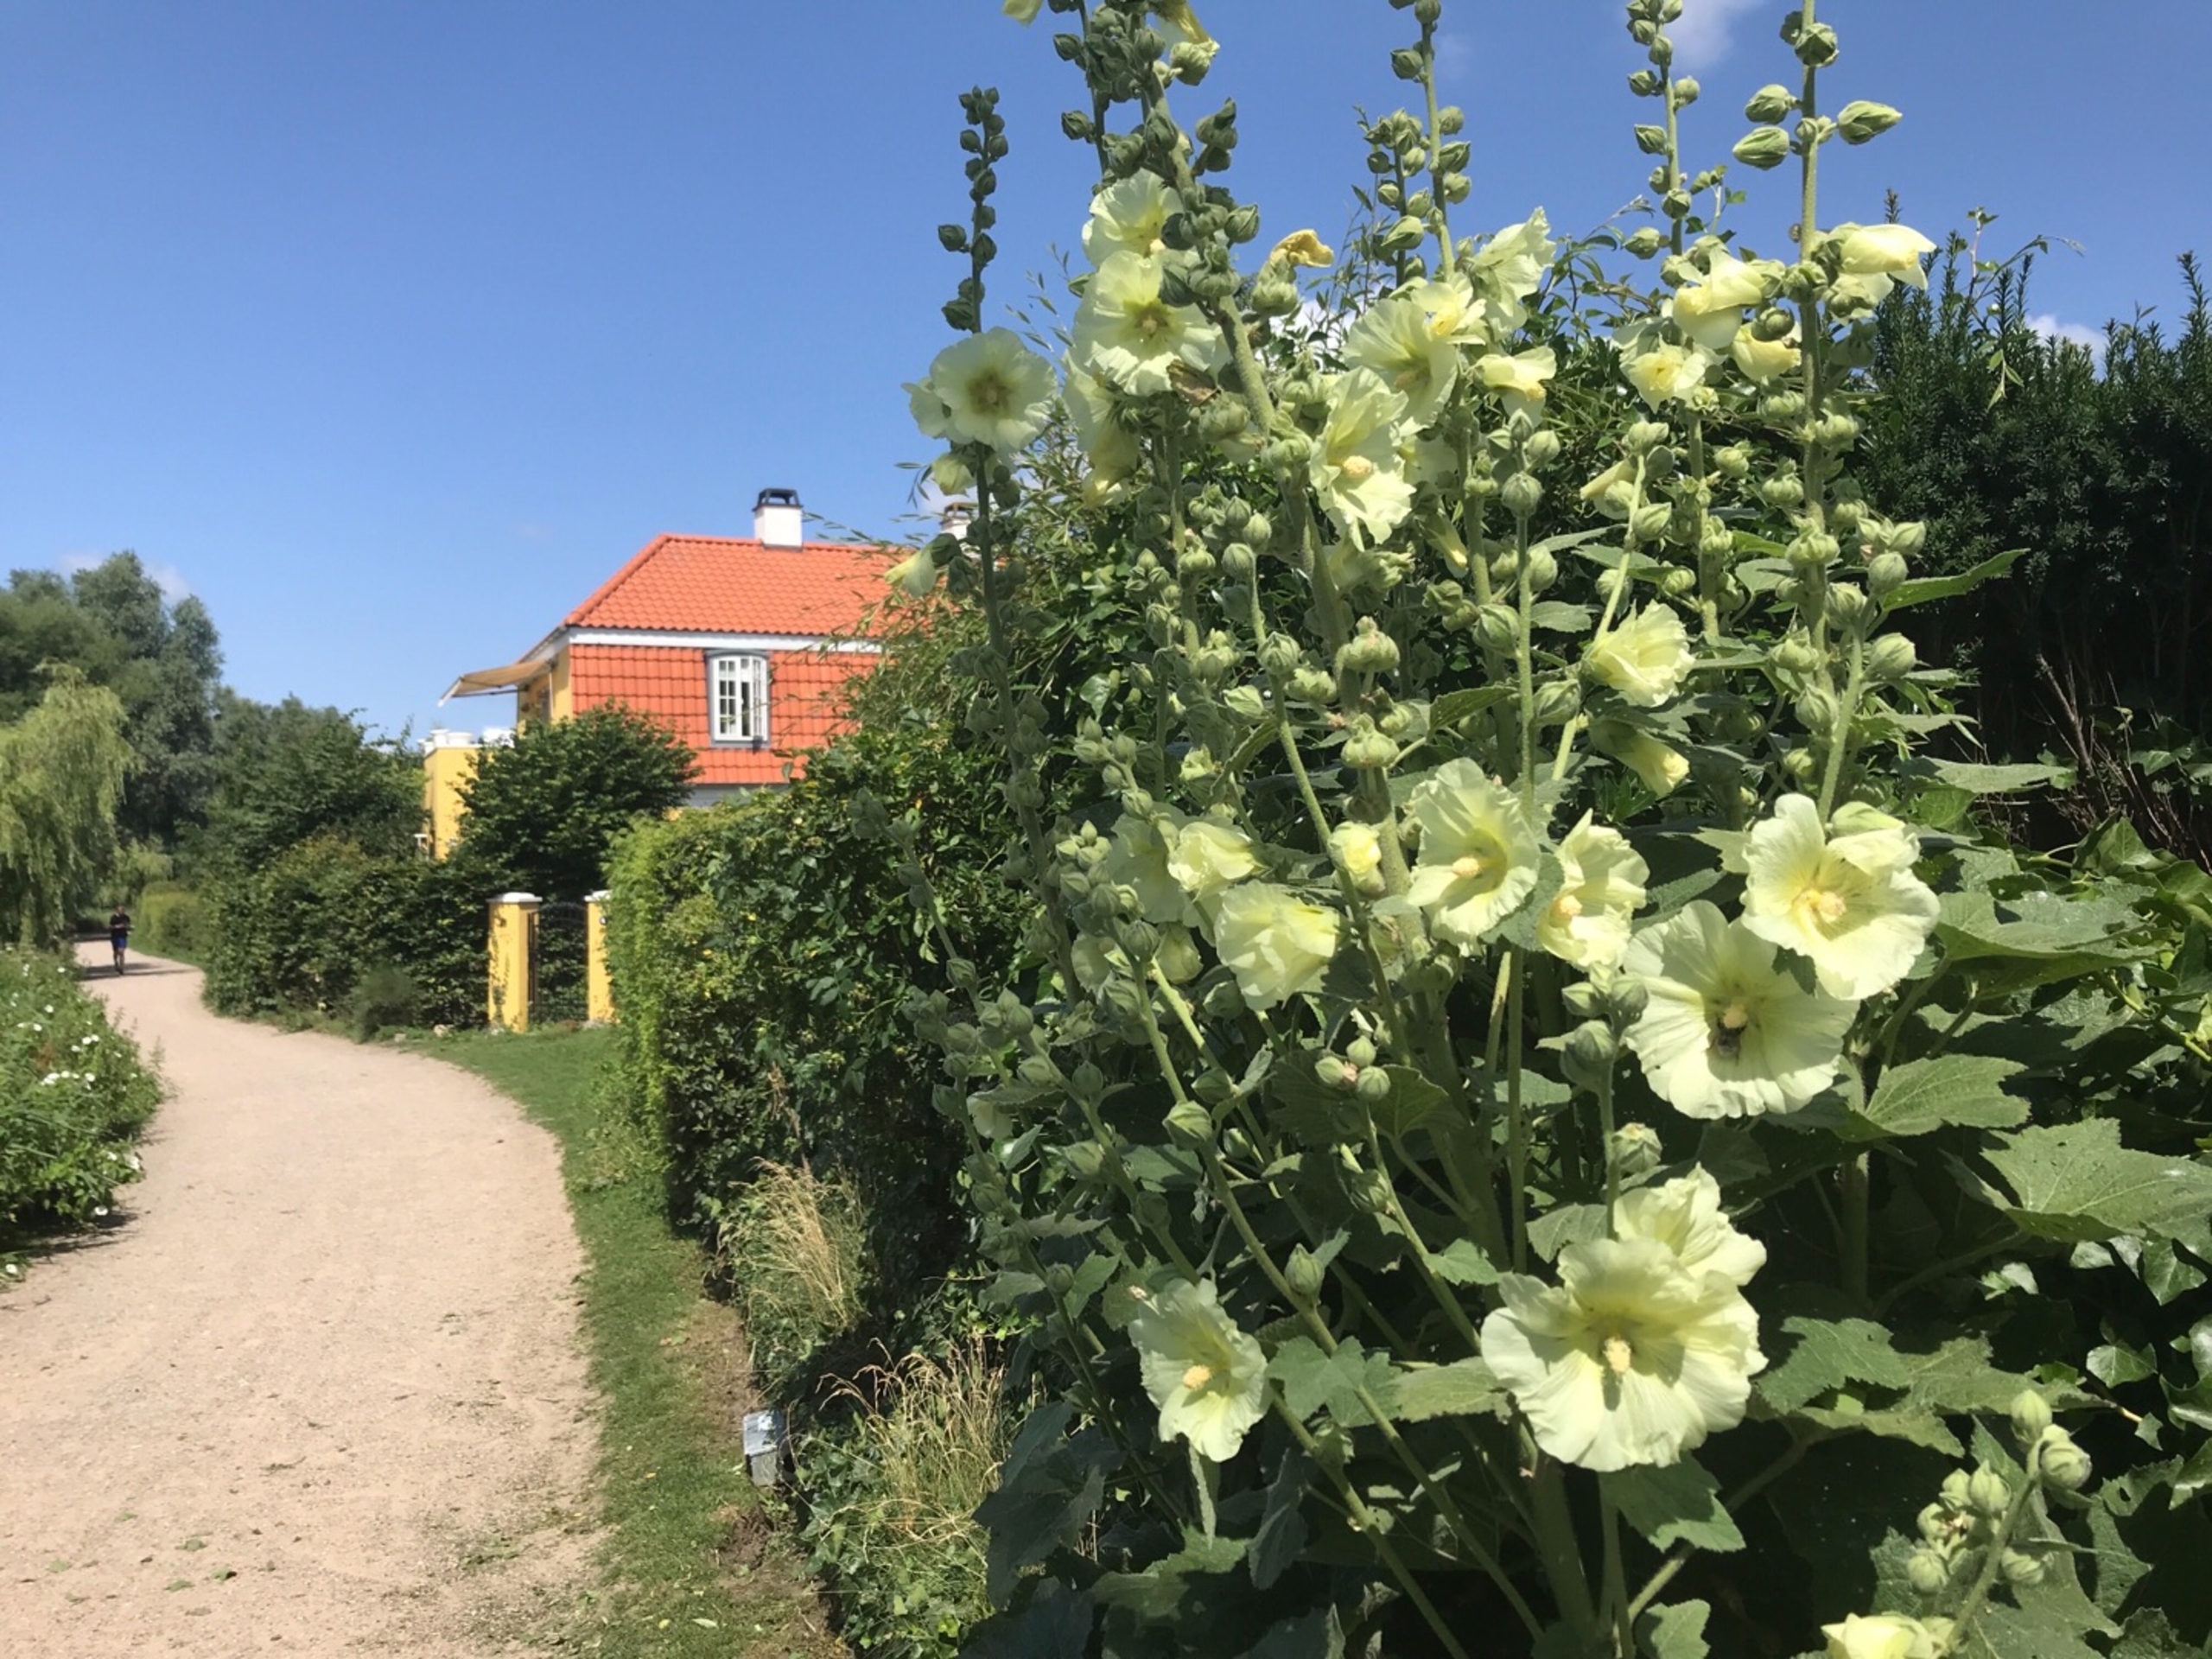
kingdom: Plantae
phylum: Tracheophyta
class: Magnoliopsida
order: Malvales
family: Malvaceae
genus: Alcea
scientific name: Alcea rosea
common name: Have-stokrose
